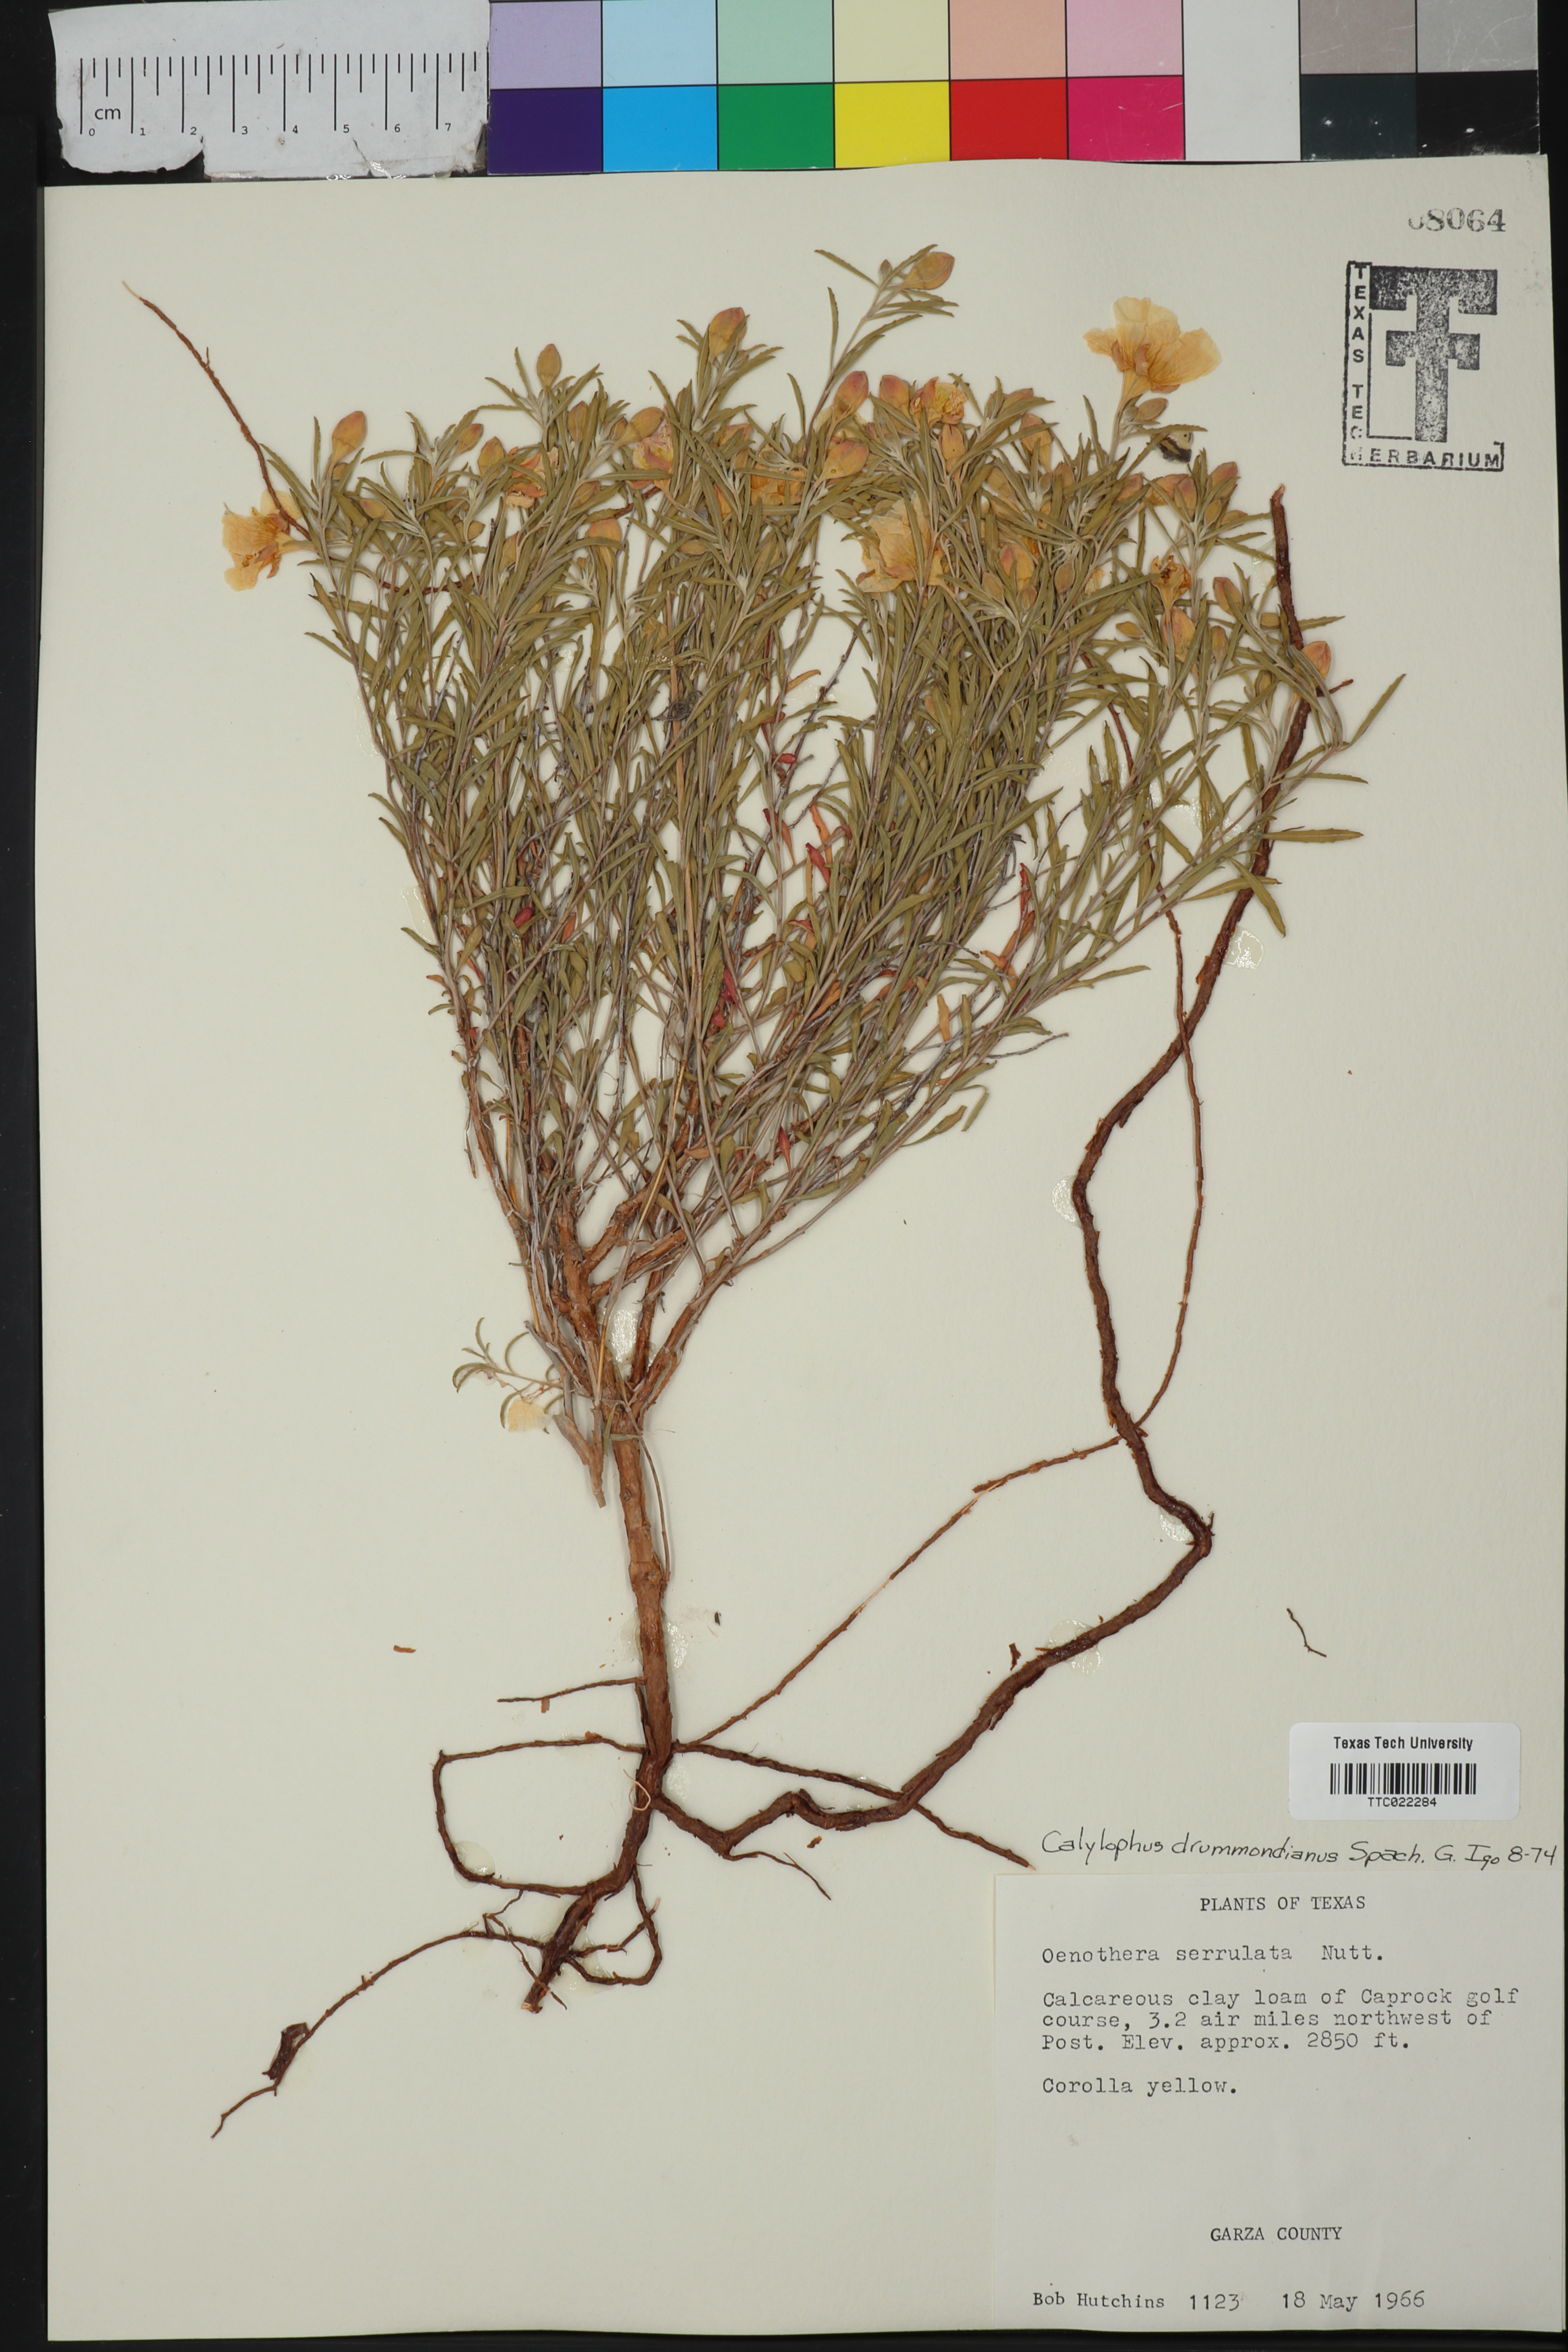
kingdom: Plantae
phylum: Tracheophyta
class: Magnoliopsida
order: Myrtales
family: Onagraceae
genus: Oenothera
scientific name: Oenothera serrulata
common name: Half-shrub calylophus
